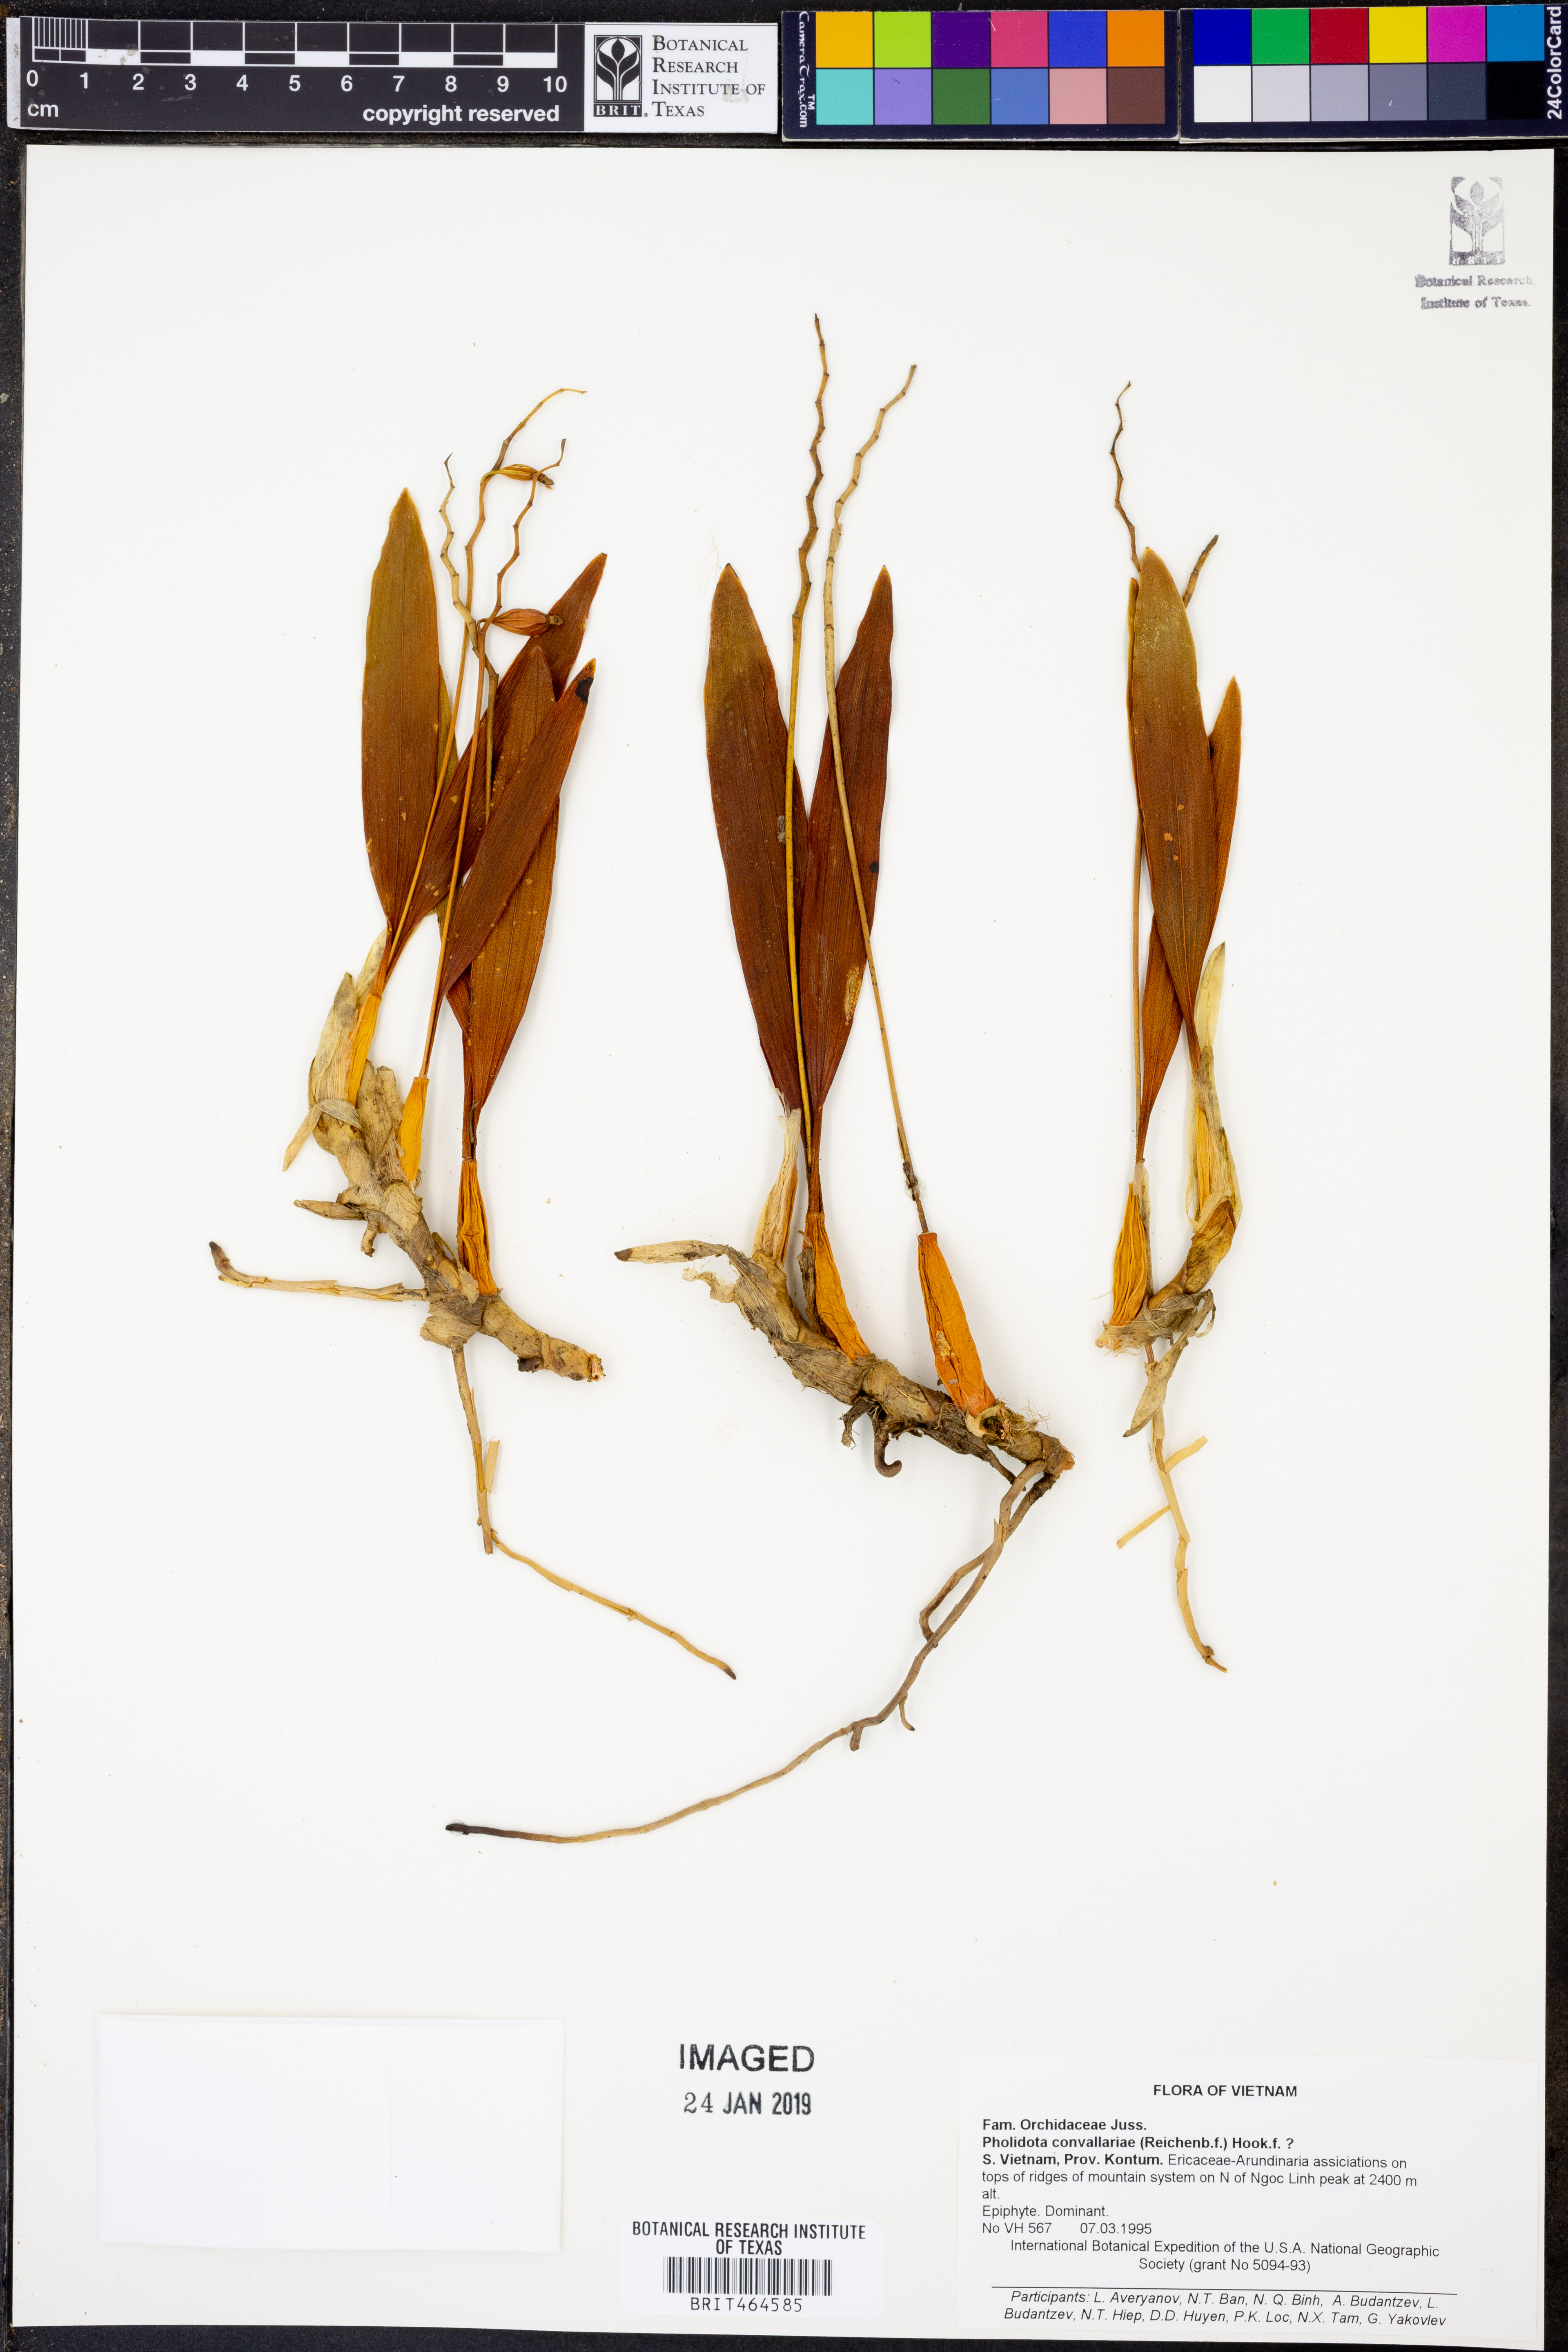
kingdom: Plantae
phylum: Tracheophyta
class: Liliopsida
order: Asparagales
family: Orchidaceae
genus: Coelogyne
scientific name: Coelogyne convallariae
